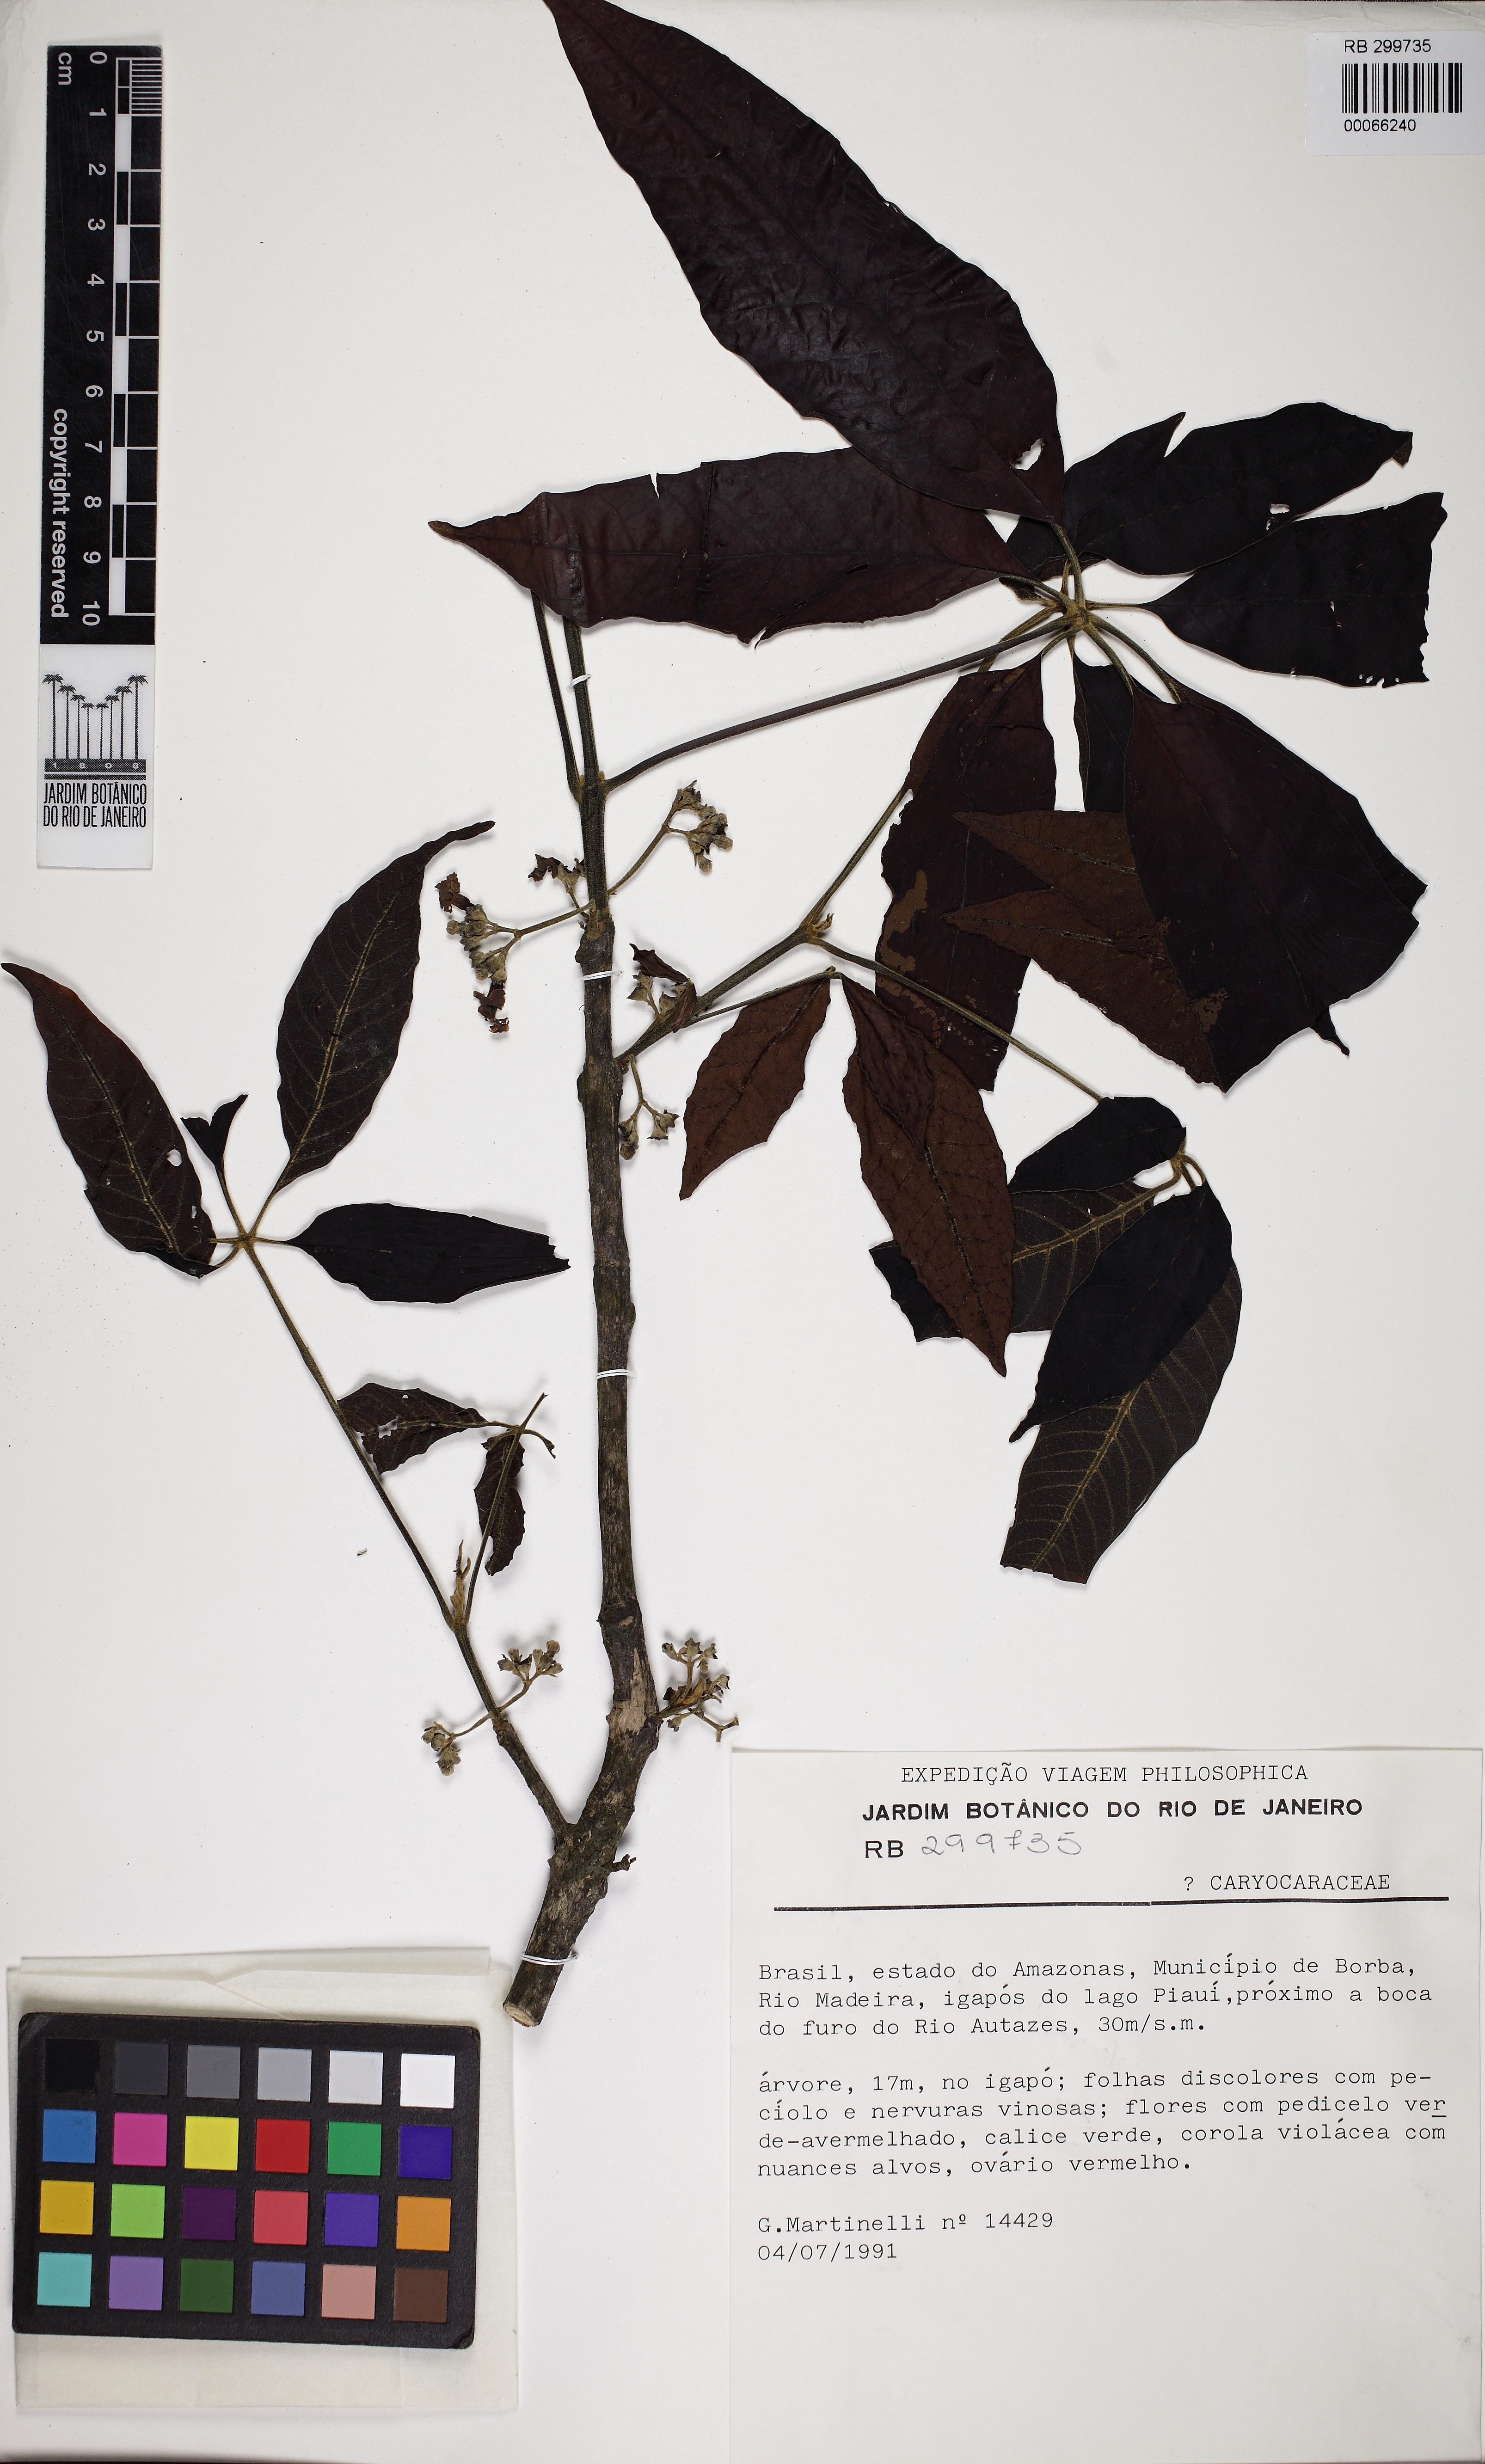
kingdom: Plantae
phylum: Tracheophyta
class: Magnoliopsida
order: Malpighiales
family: Caryocaraceae
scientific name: Caryocaraceae
